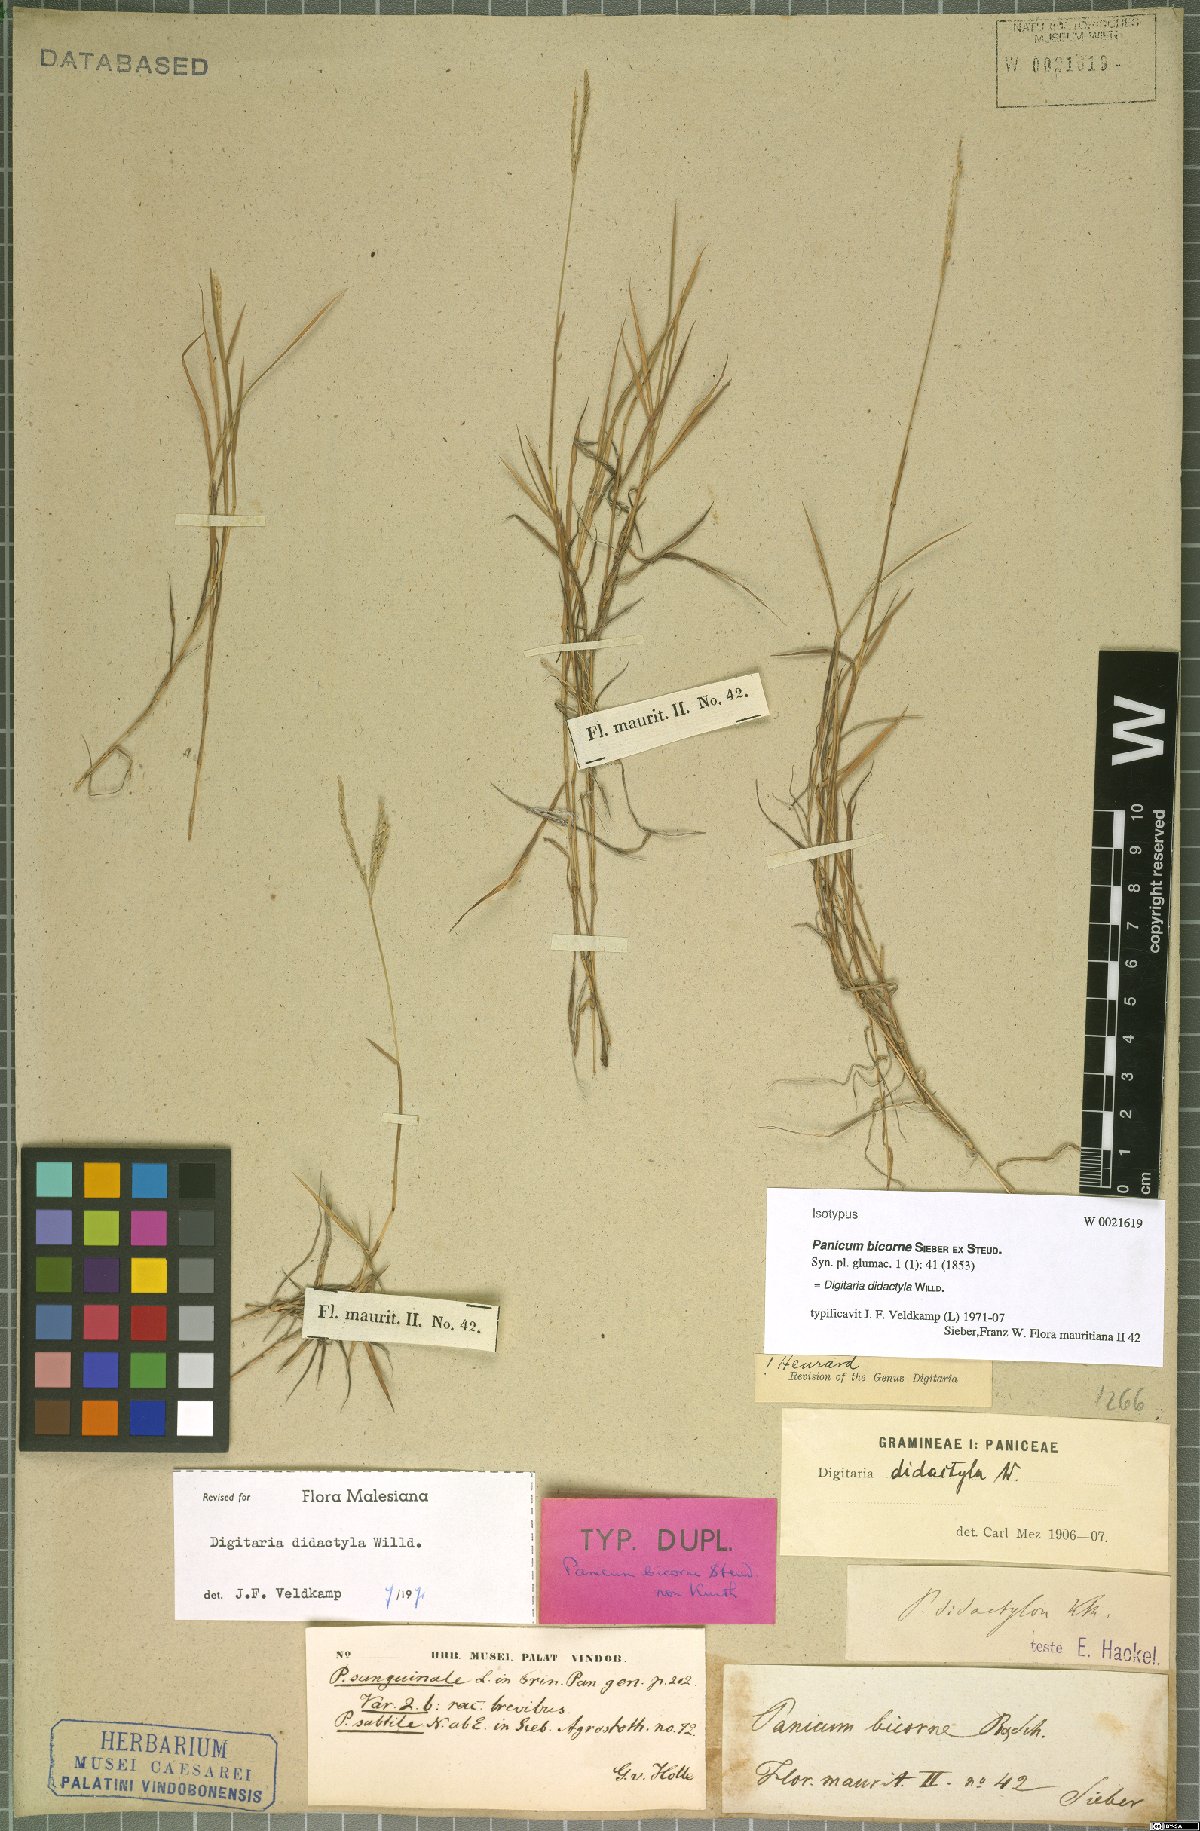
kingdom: Plantae
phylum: Tracheophyta
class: Liliopsida
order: Poales
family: Poaceae
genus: Digitaria
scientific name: Digitaria didactyla
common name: Blue couch
